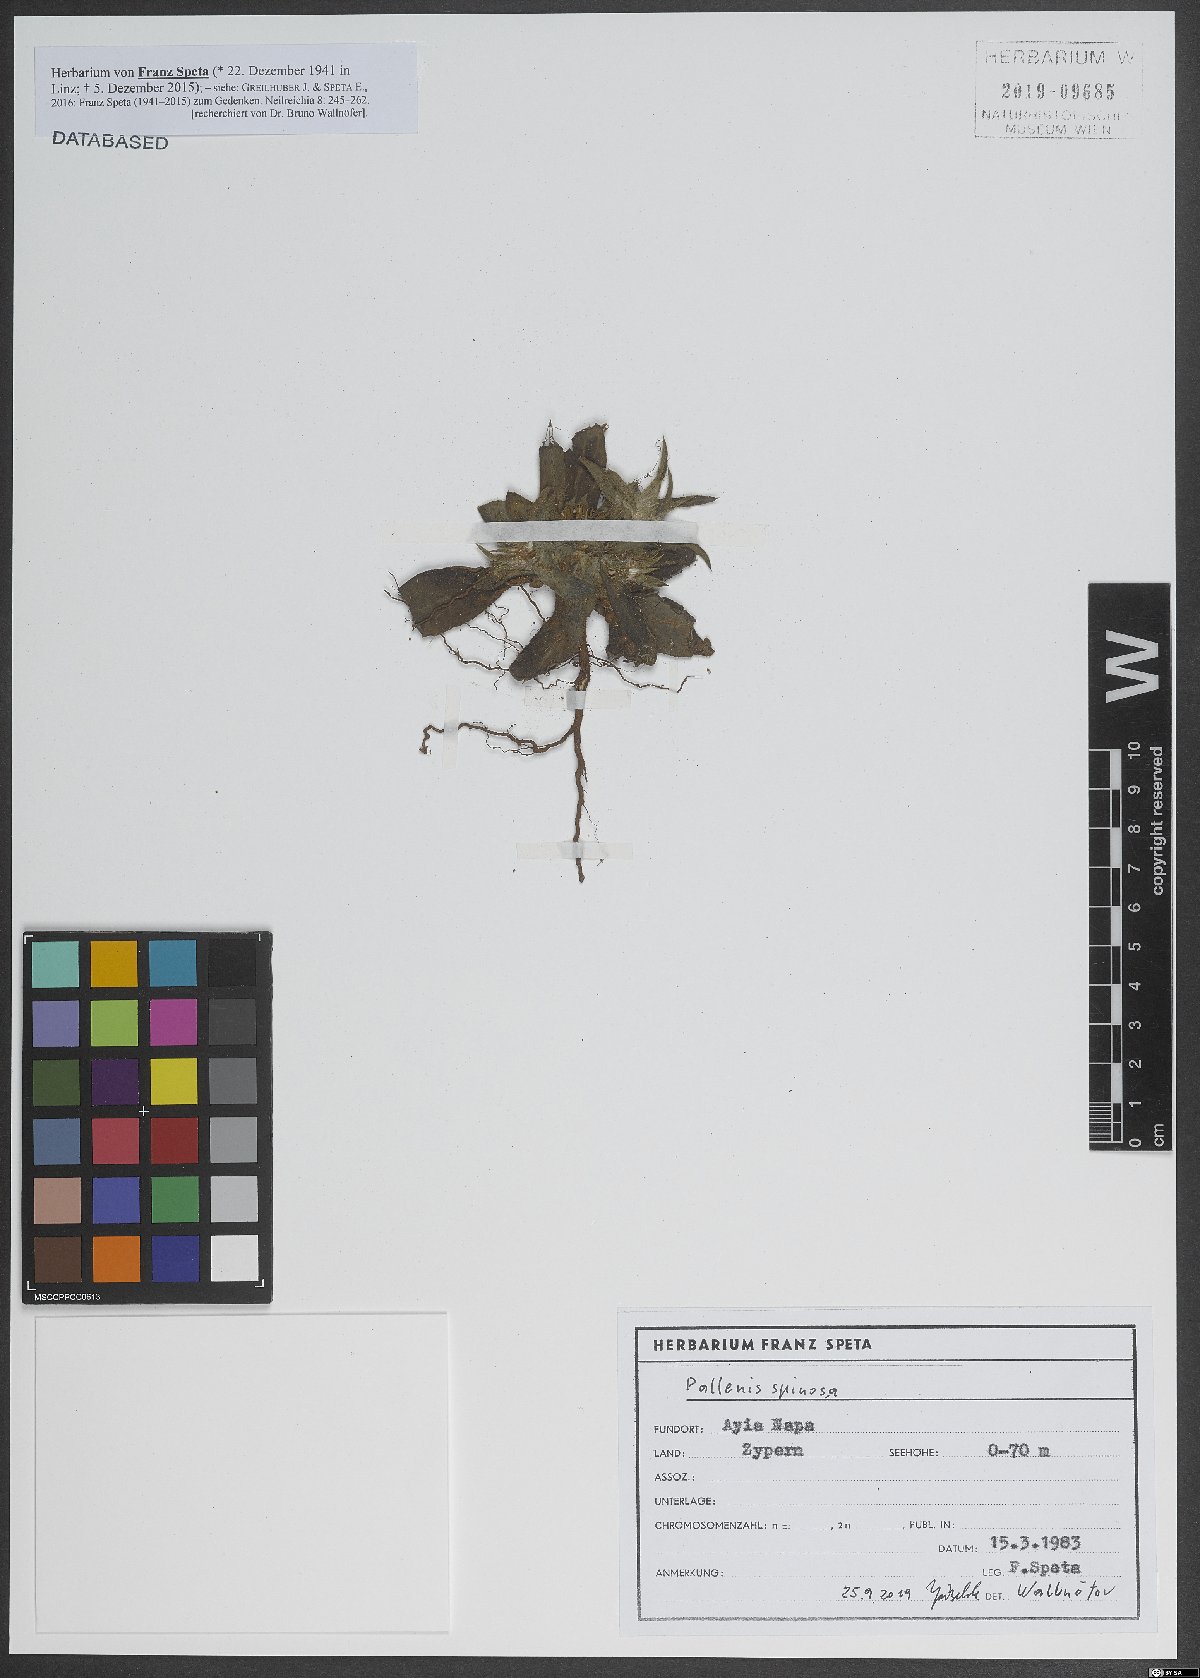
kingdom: Plantae
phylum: Tracheophyta
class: Magnoliopsida
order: Asterales
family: Asteraceae
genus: Pallenis
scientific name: Pallenis spinosa
